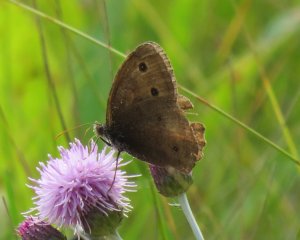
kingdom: Animalia
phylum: Arthropoda
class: Insecta
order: Lepidoptera
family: Nymphalidae
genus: Cercyonis
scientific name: Cercyonis pegala
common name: Common Wood-Nymph
